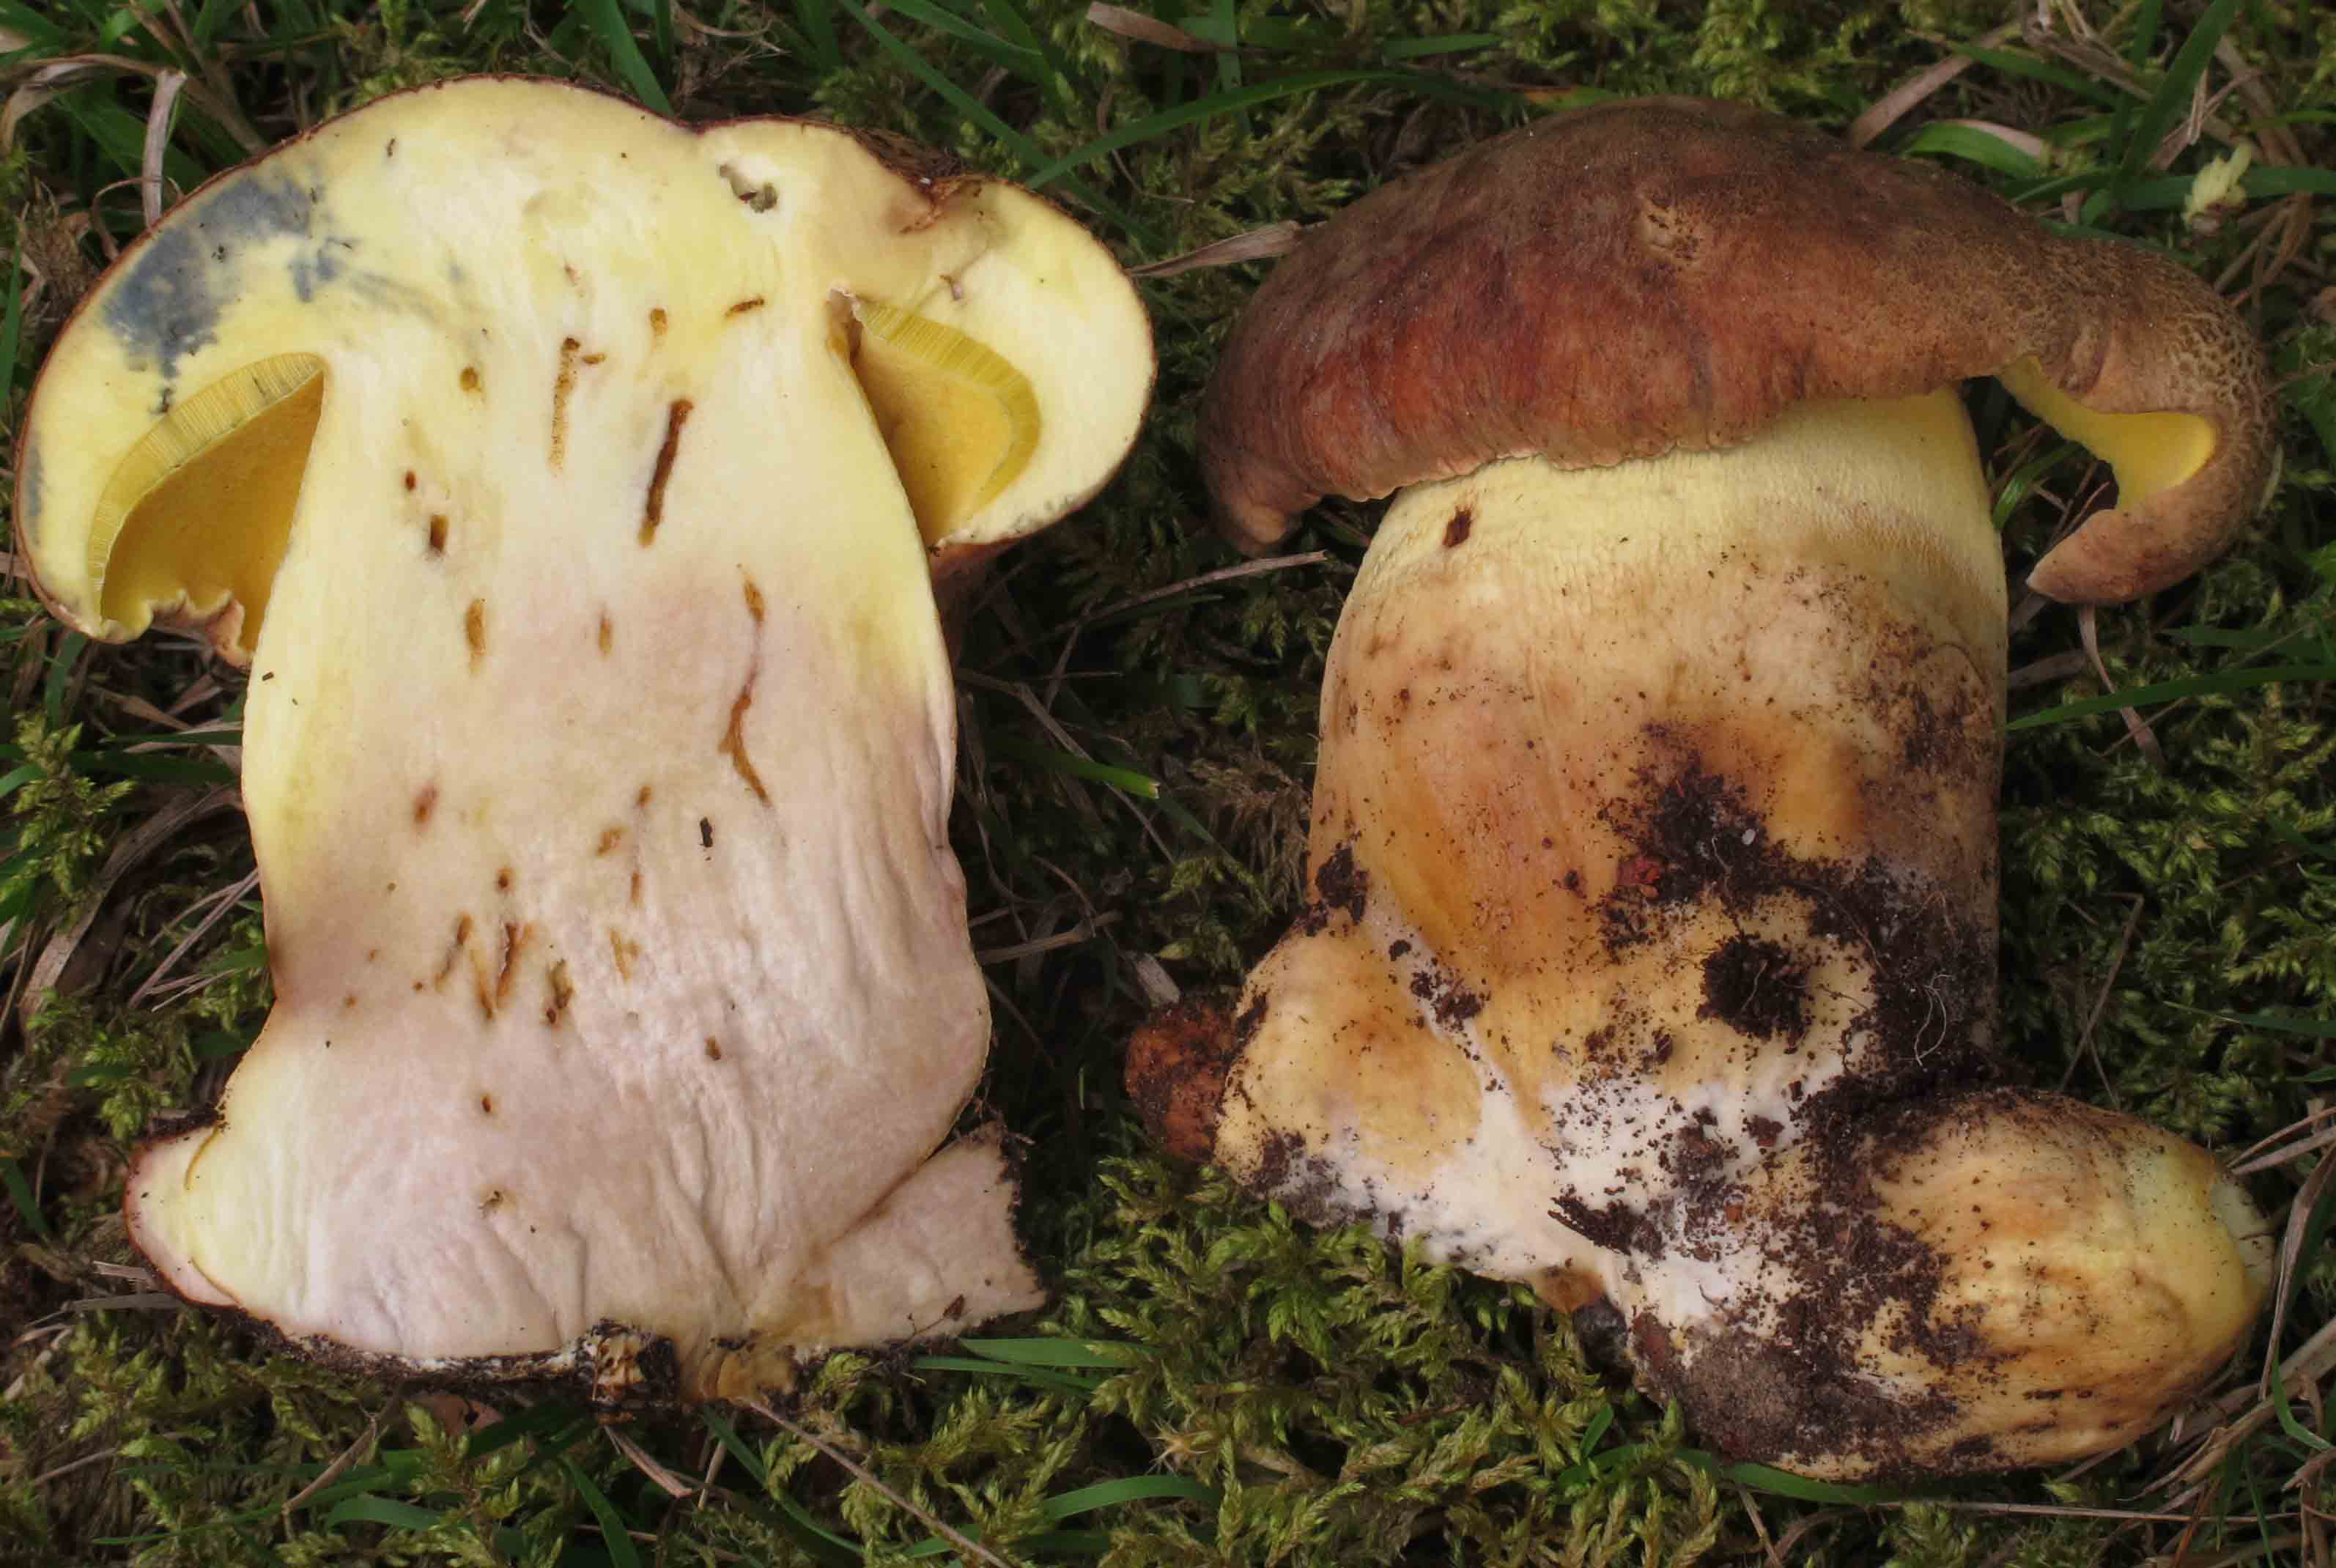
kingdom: Fungi
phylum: Basidiomycota
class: Agaricomycetes
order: Boletales
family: Boletaceae
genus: Butyriboletus
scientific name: Butyriboletus appendiculatus
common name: tenstokket rørhat
